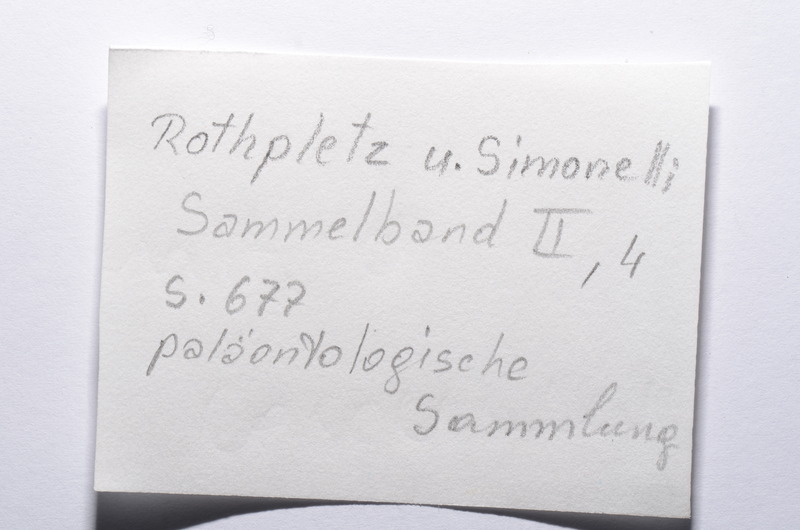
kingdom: Animalia
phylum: Chordata
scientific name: Chordata
